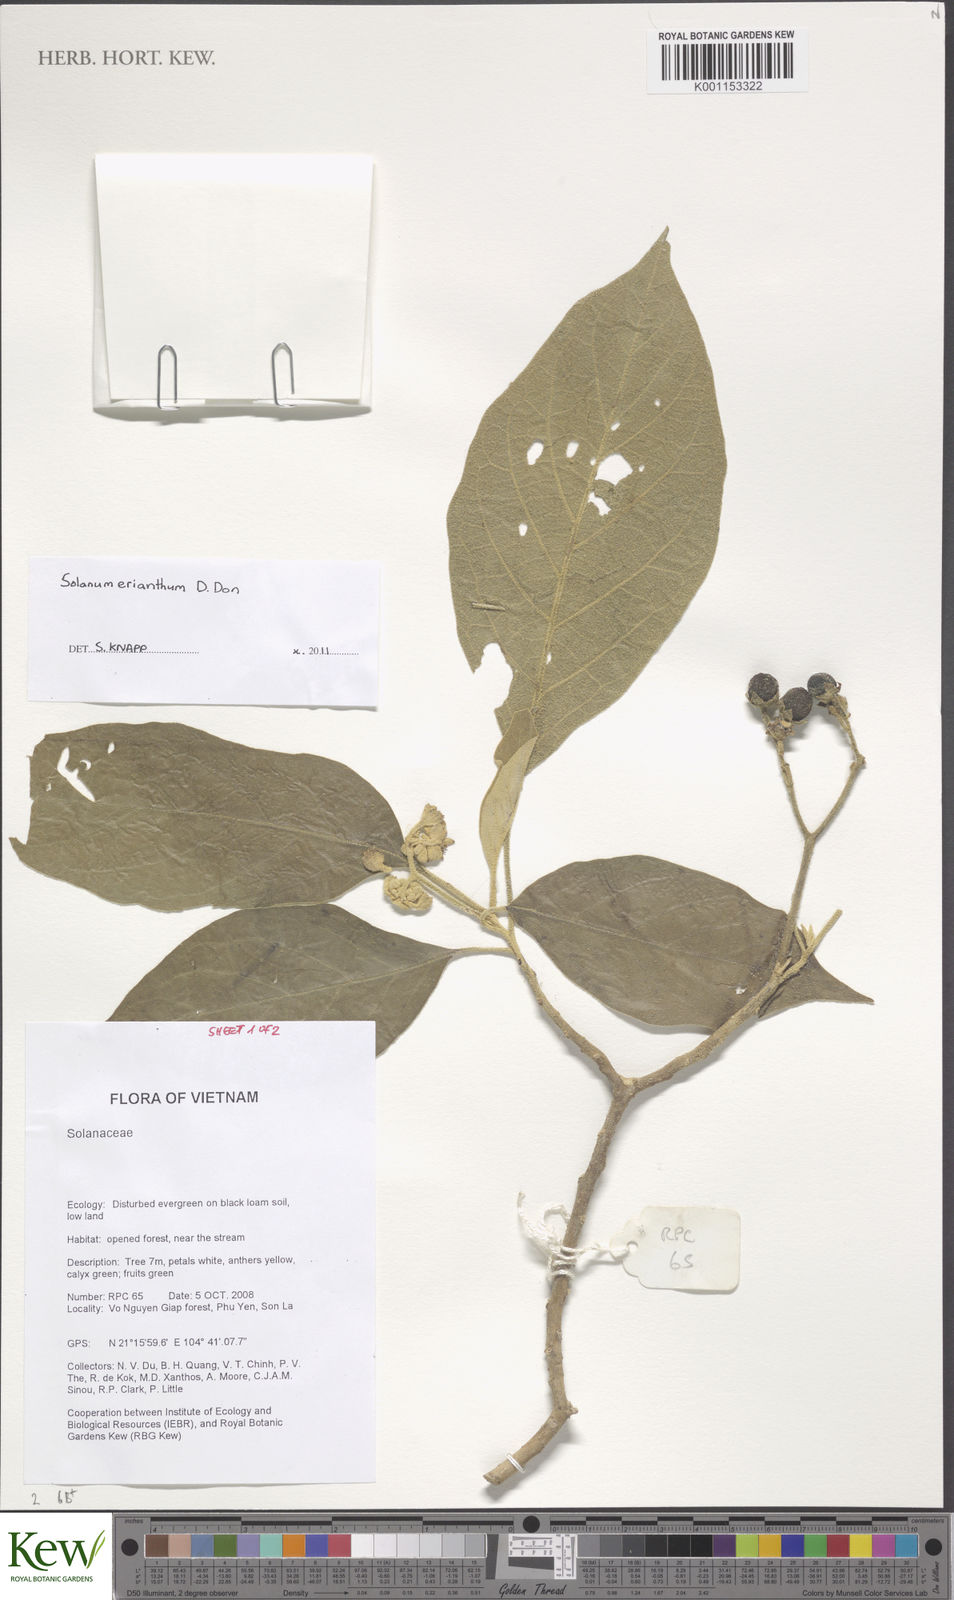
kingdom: Plantae
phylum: Tracheophyta
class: Magnoliopsida
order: Solanales
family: Solanaceae
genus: Solanum
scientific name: Solanum erianthum
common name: Tobacco-tree
